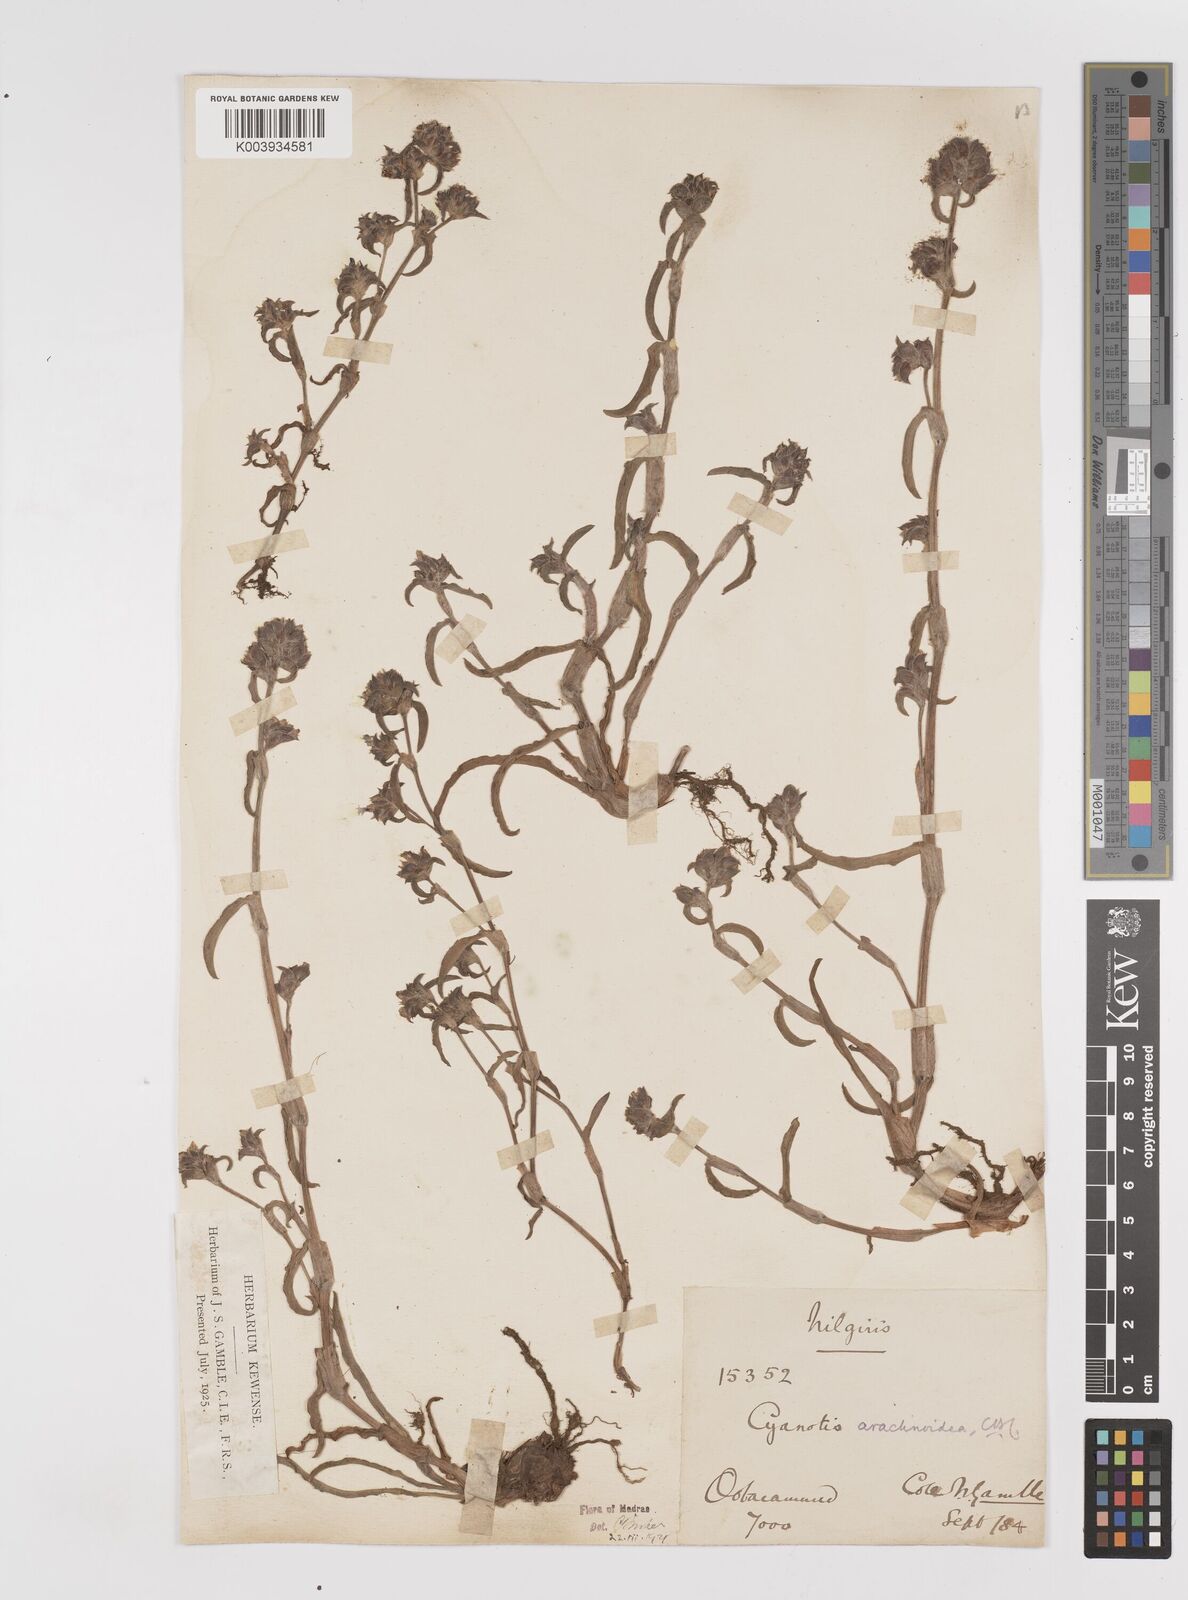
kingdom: Plantae
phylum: Tracheophyta
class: Liliopsida
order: Commelinales
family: Commelinaceae
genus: Cyanotis
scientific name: Cyanotis arachnoidea
